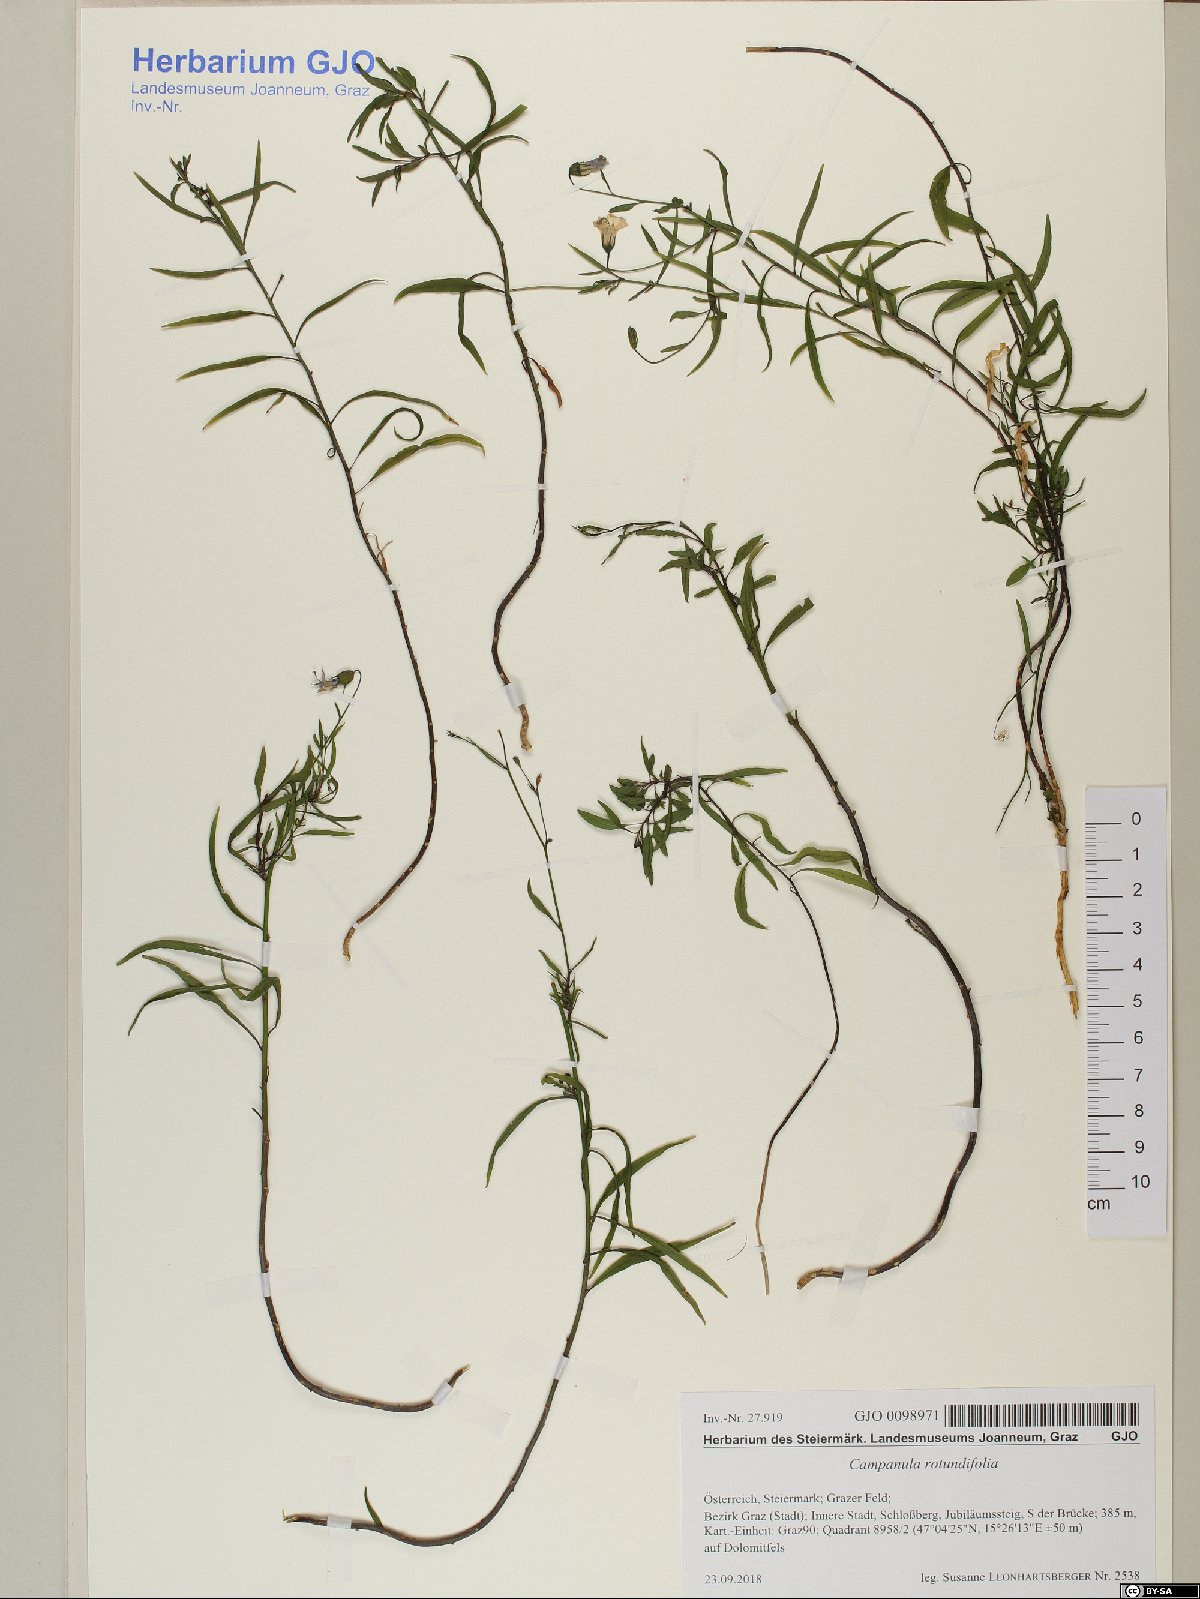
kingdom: Plantae
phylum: Tracheophyta
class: Magnoliopsida
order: Asterales
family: Campanulaceae
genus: Campanula
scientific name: Campanula rotundifolia
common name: Harebell
